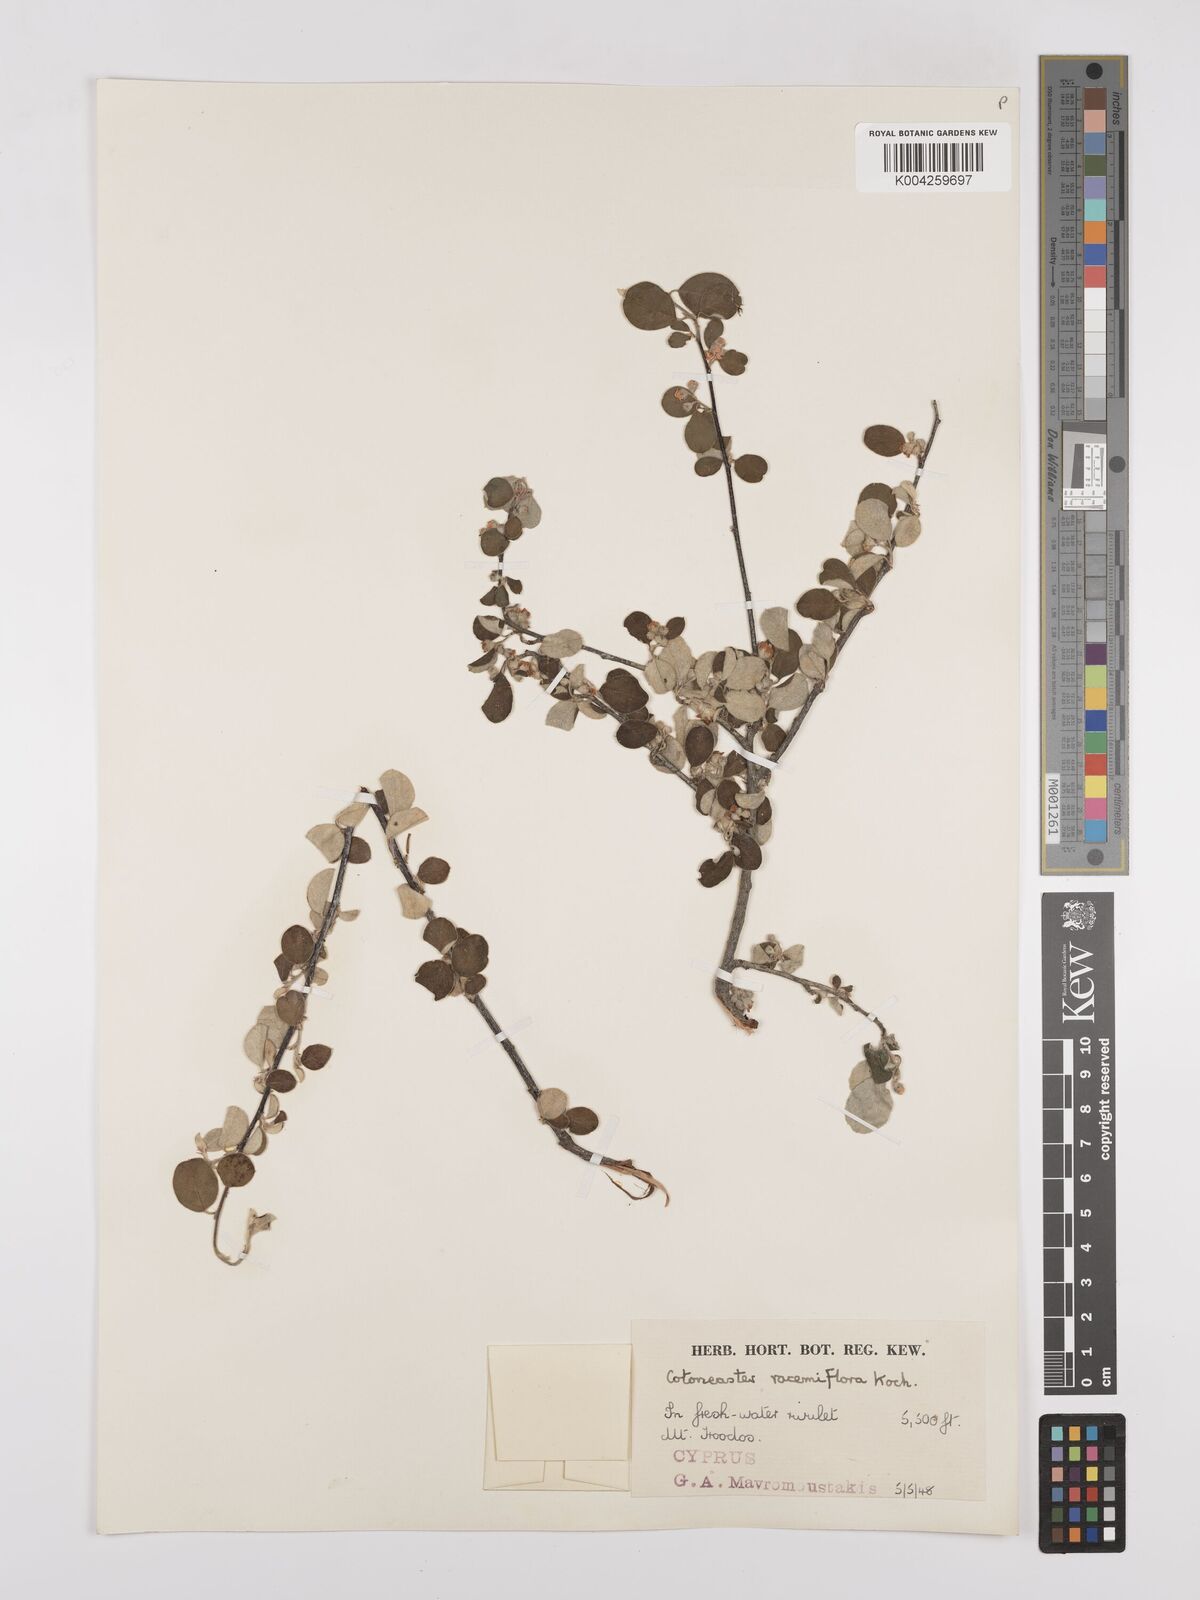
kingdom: Plantae
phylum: Tracheophyta
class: Magnoliopsida
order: Rosales
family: Rosaceae
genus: Cotoneaster
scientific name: Cotoneaster racemiflorus
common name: Cluster-flower cotoneaster
